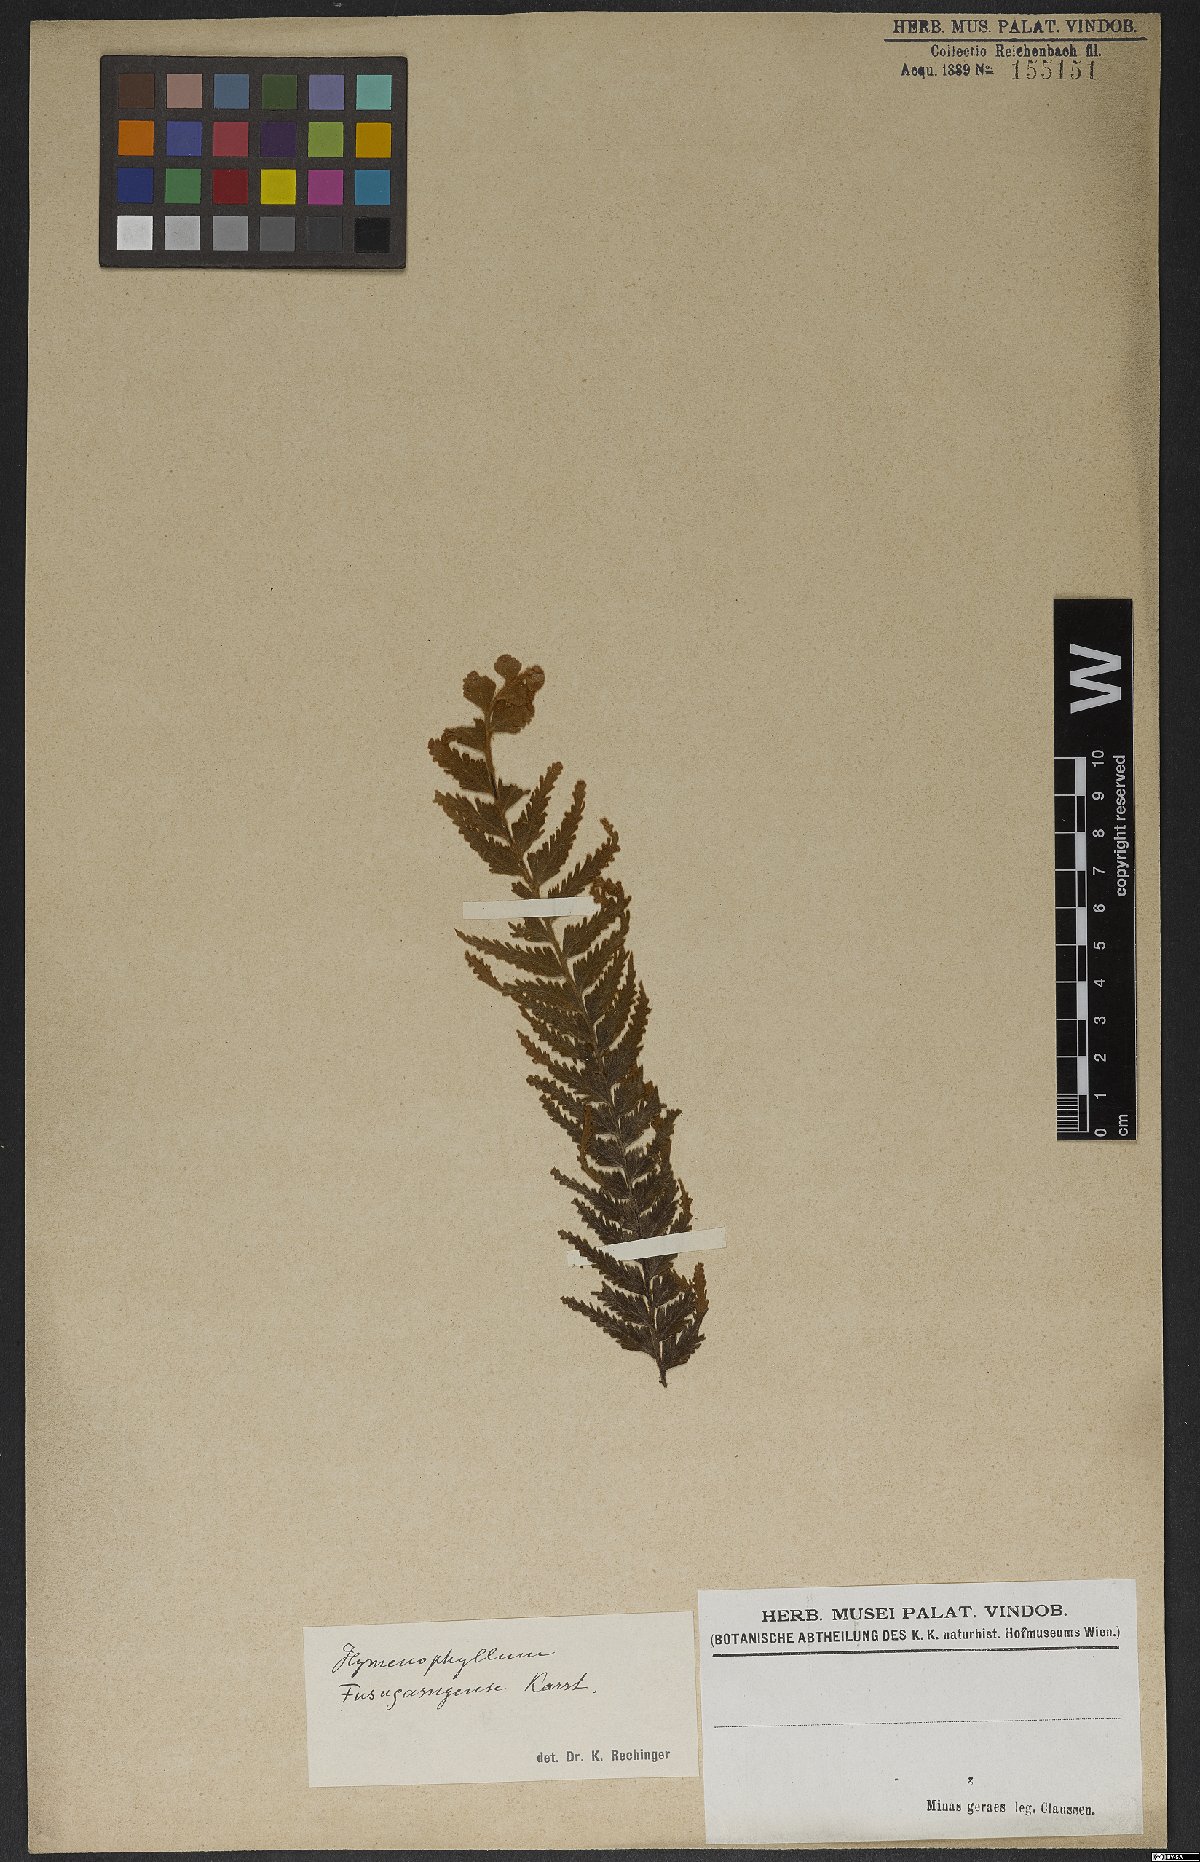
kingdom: Plantae
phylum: Tracheophyta
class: Polypodiopsida
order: Hymenophyllales
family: Hymenophyllaceae
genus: Hymenophyllum
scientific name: Hymenophyllum tomentosum
